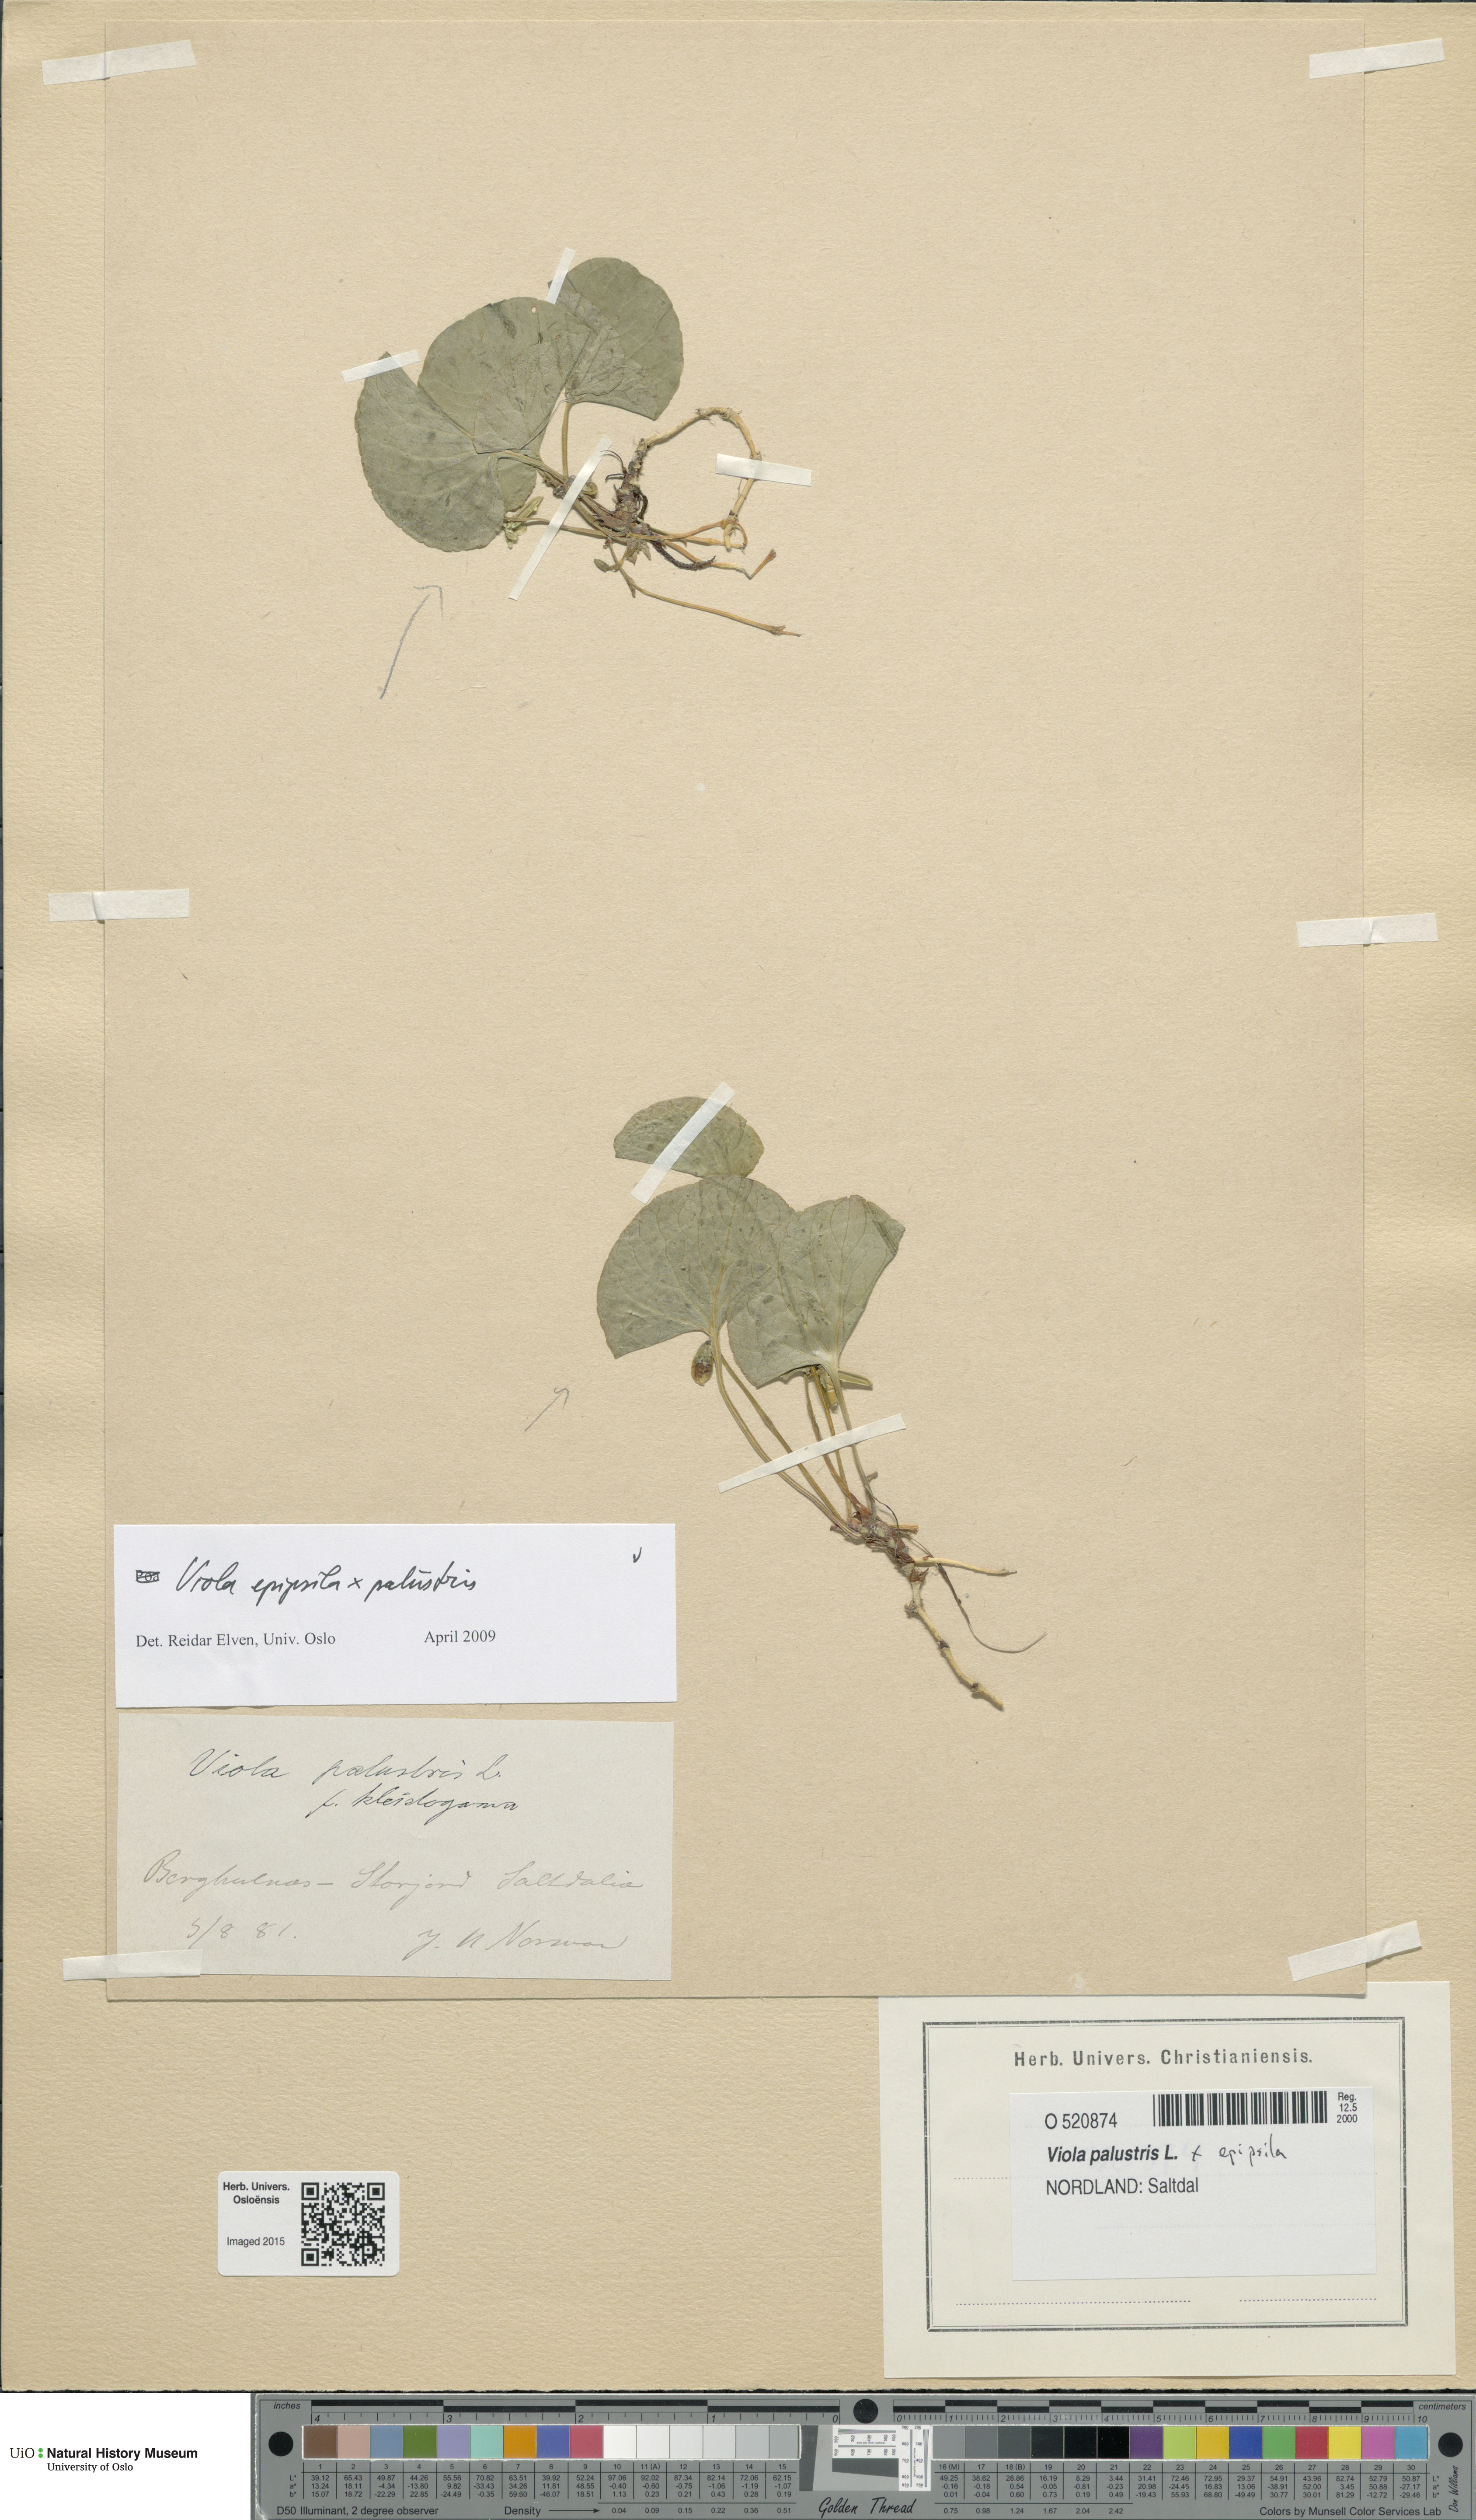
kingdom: Plantae
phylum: Tracheophyta
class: Magnoliopsida
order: Malpighiales
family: Violaceae
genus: Viola
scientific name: Viola
